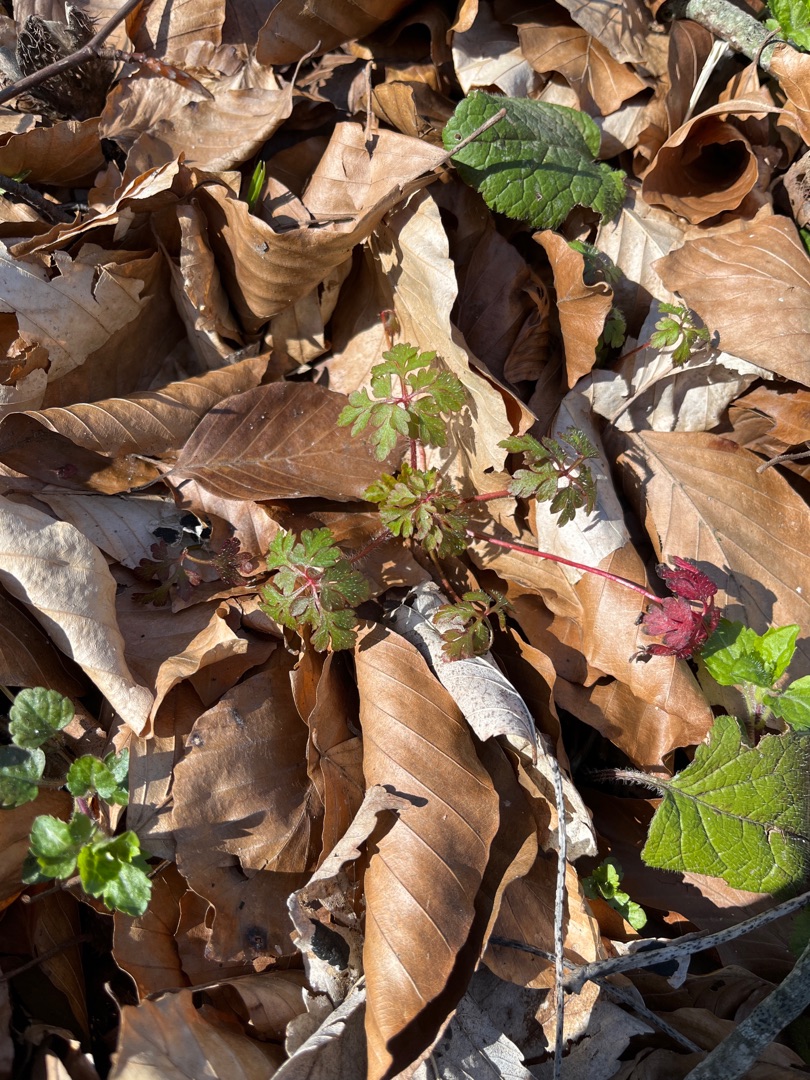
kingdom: Plantae
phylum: Tracheophyta
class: Magnoliopsida
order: Geraniales
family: Geraniaceae
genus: Geranium
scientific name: Geranium robertianum
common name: Stinkende storkenæb
